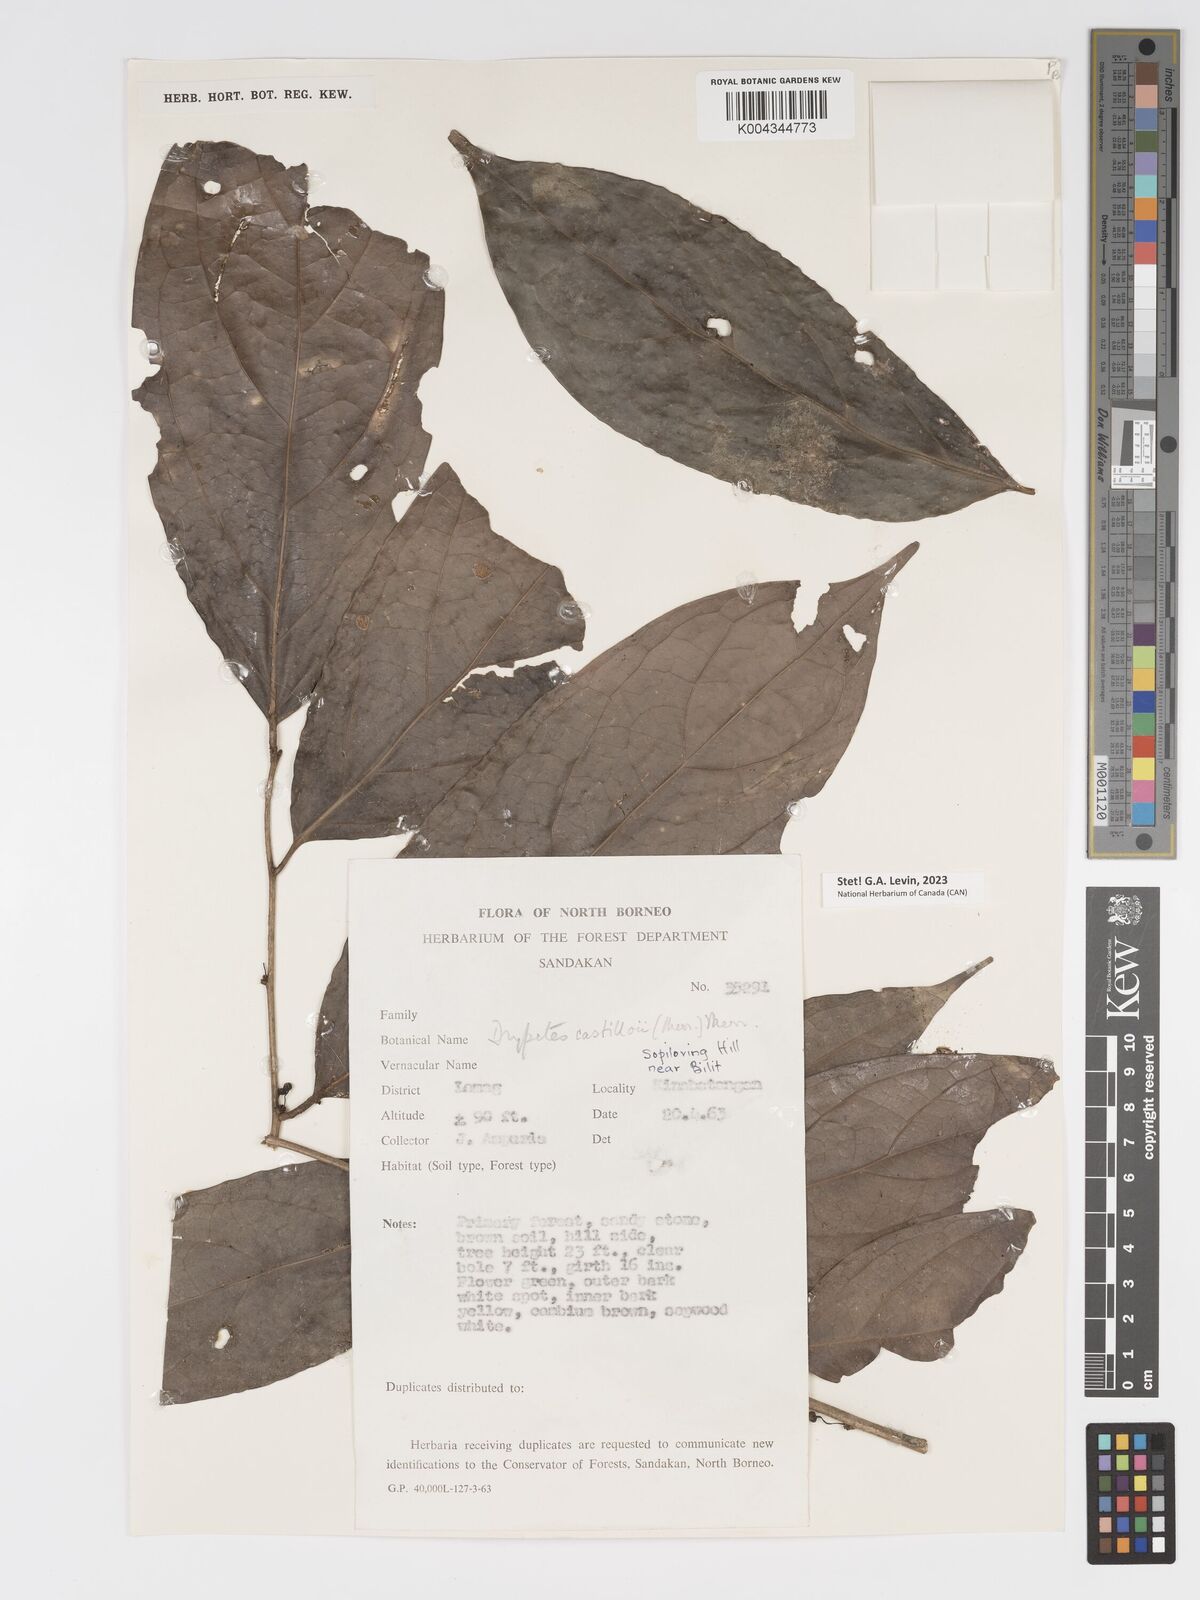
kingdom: Plantae
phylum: Tracheophyta
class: Magnoliopsida
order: Malpighiales
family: Putranjivaceae
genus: Drypetes
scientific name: Drypetes castilloi
